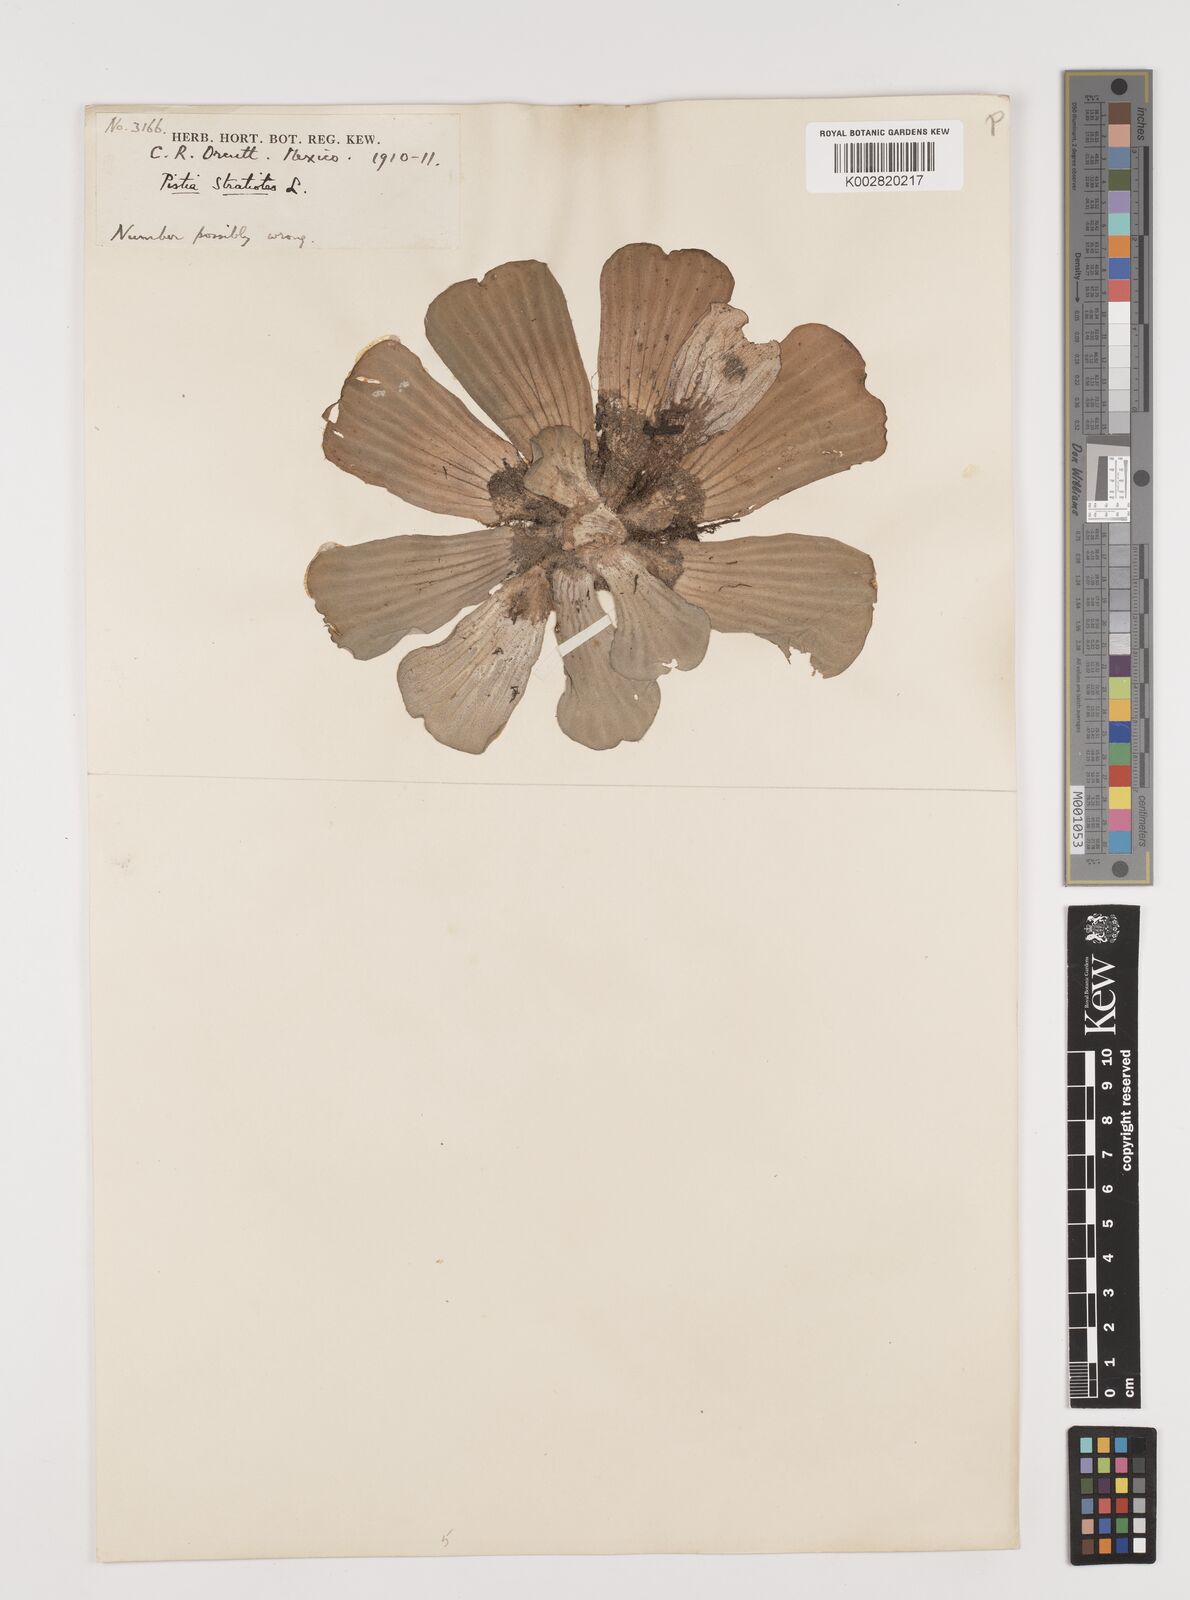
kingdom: Plantae
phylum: Tracheophyta
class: Liliopsida
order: Alismatales
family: Araceae
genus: Pistia
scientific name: Pistia stratiotes
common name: Water lettuce
